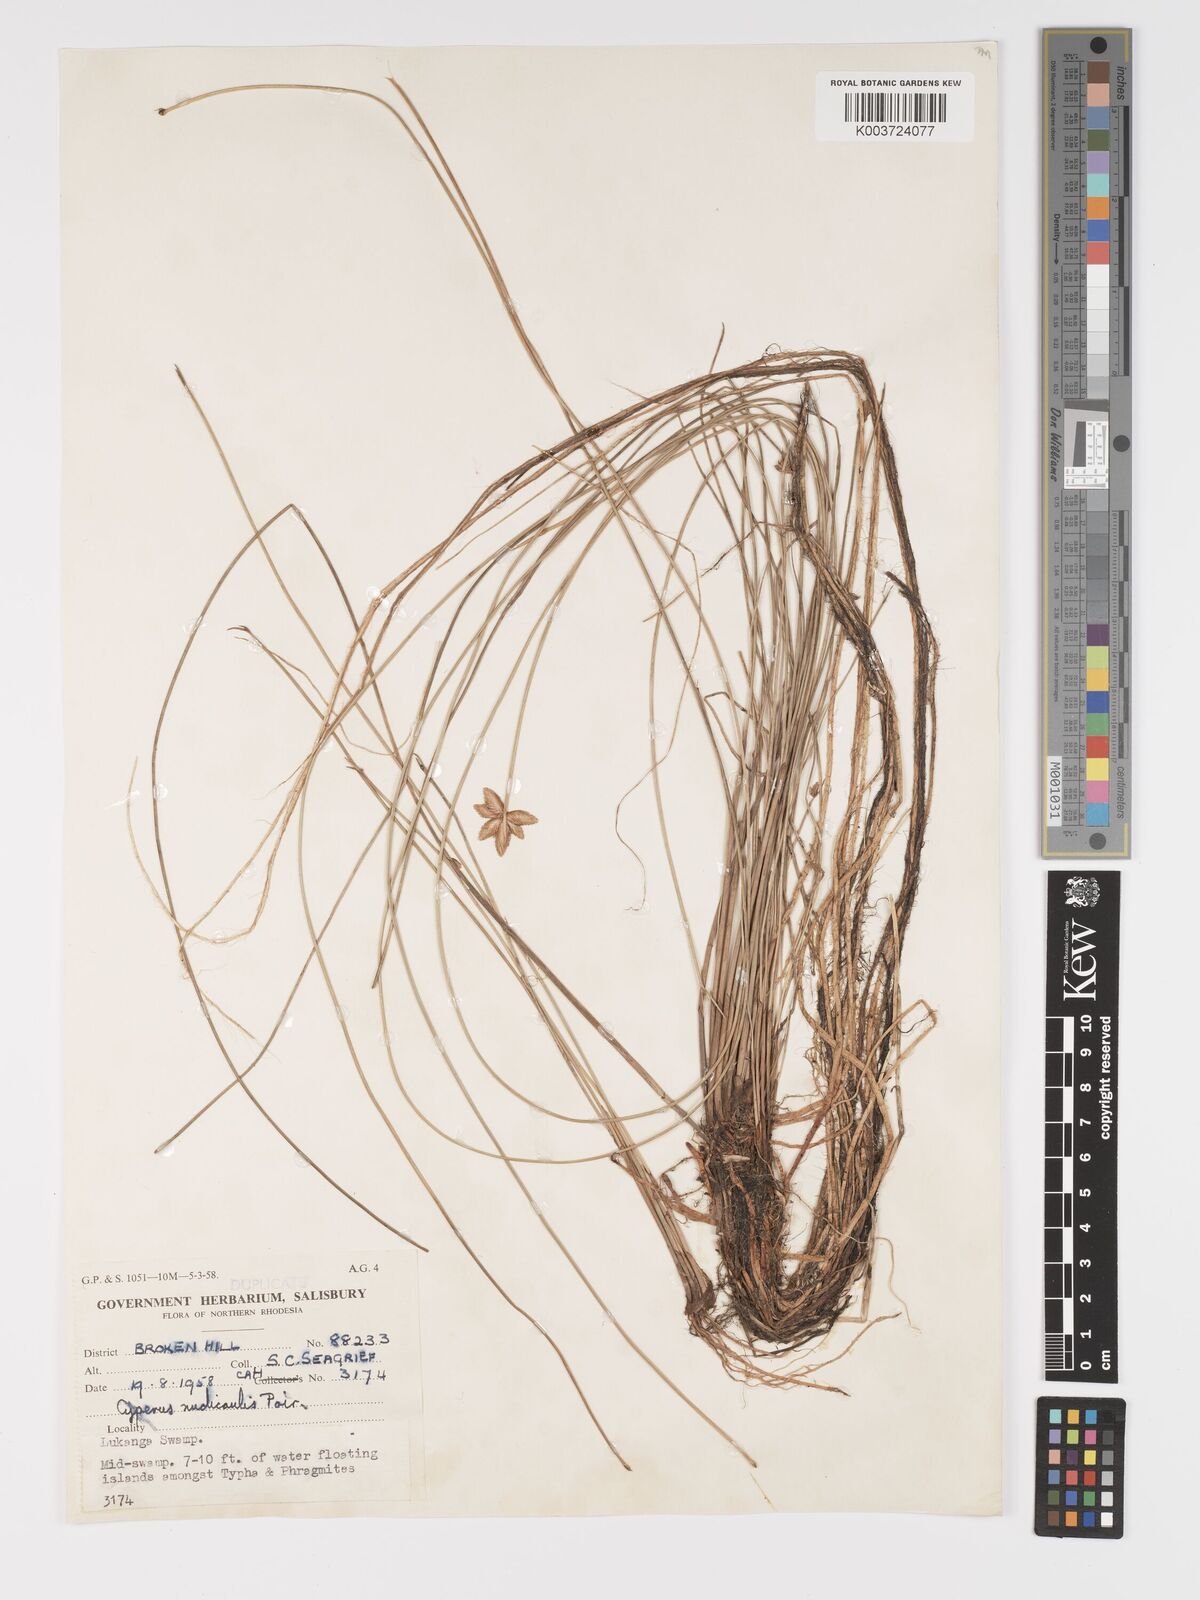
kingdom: Plantae
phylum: Tracheophyta
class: Liliopsida
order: Poales
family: Cyperaceae
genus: Cyperus
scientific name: Cyperus compressus
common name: Poorland flatsedge
